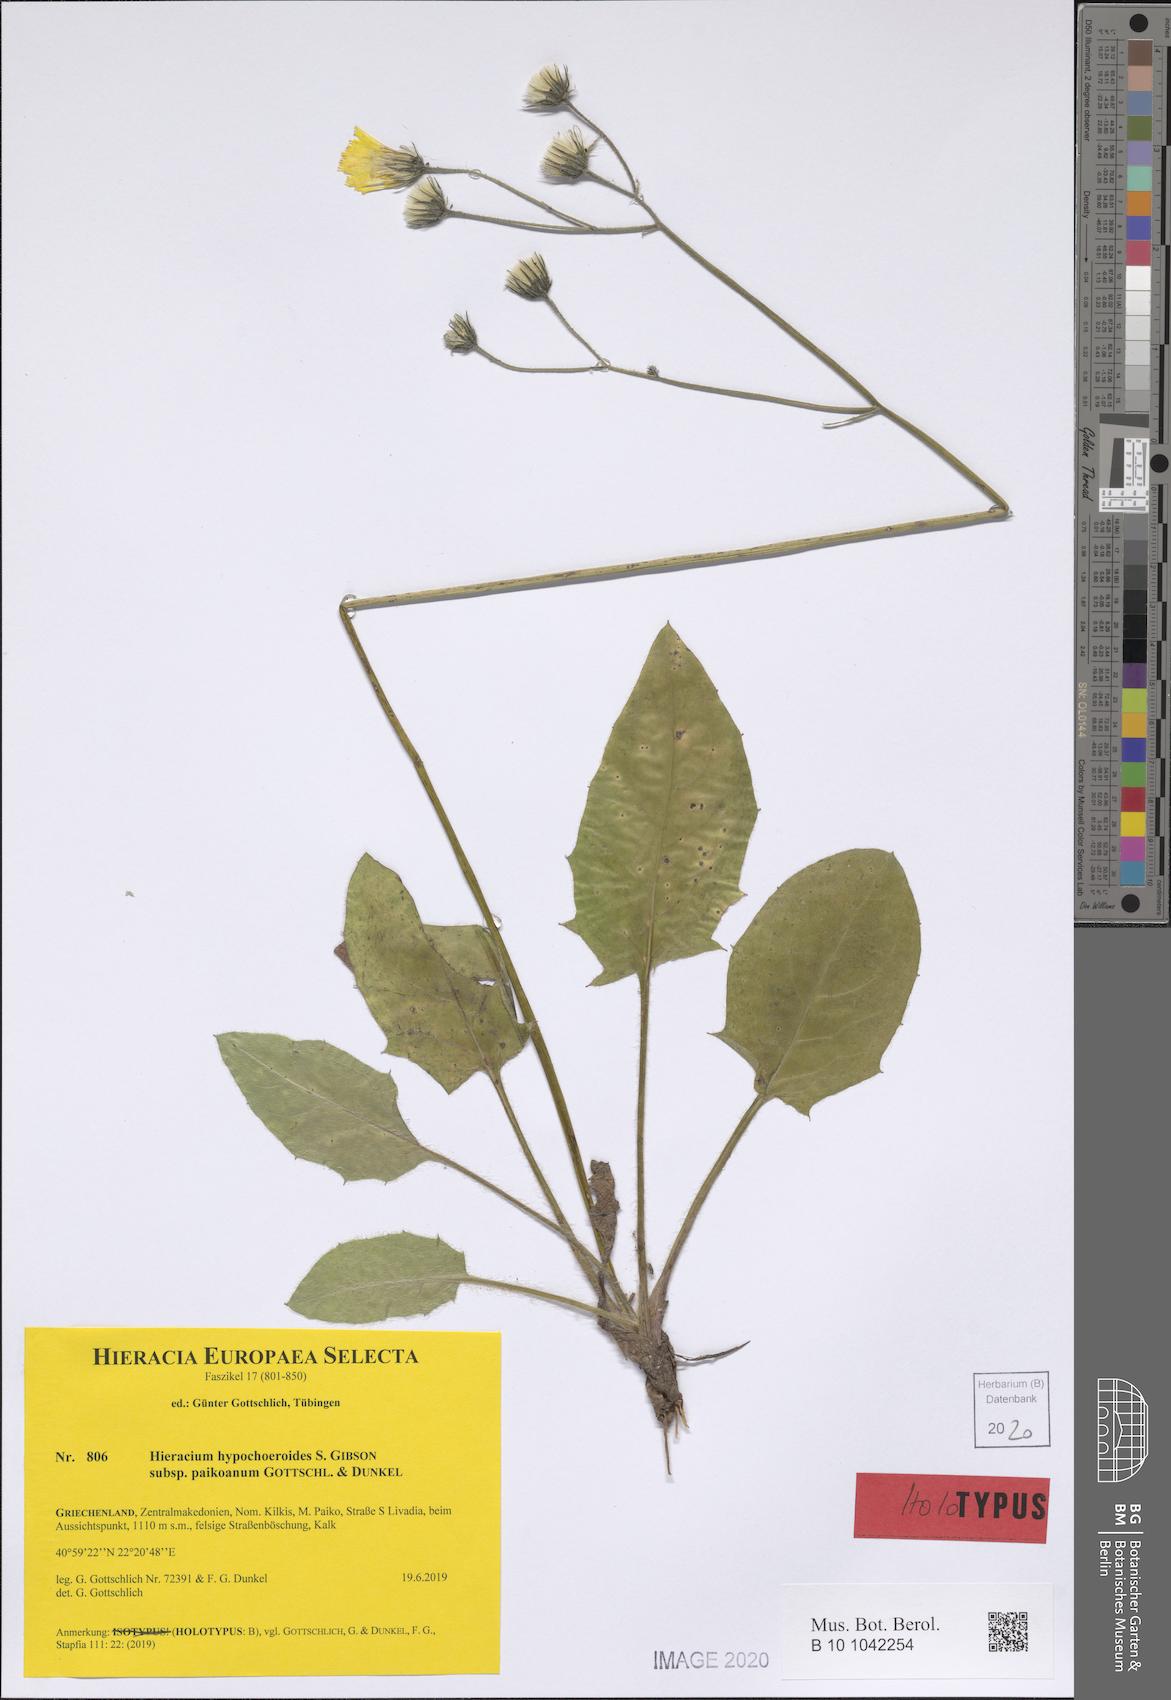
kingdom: Plantae
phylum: Tracheophyta
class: Magnoliopsida
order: Asterales
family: Asteraceae
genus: Hieracium
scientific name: Hieracium hypochoeroides
